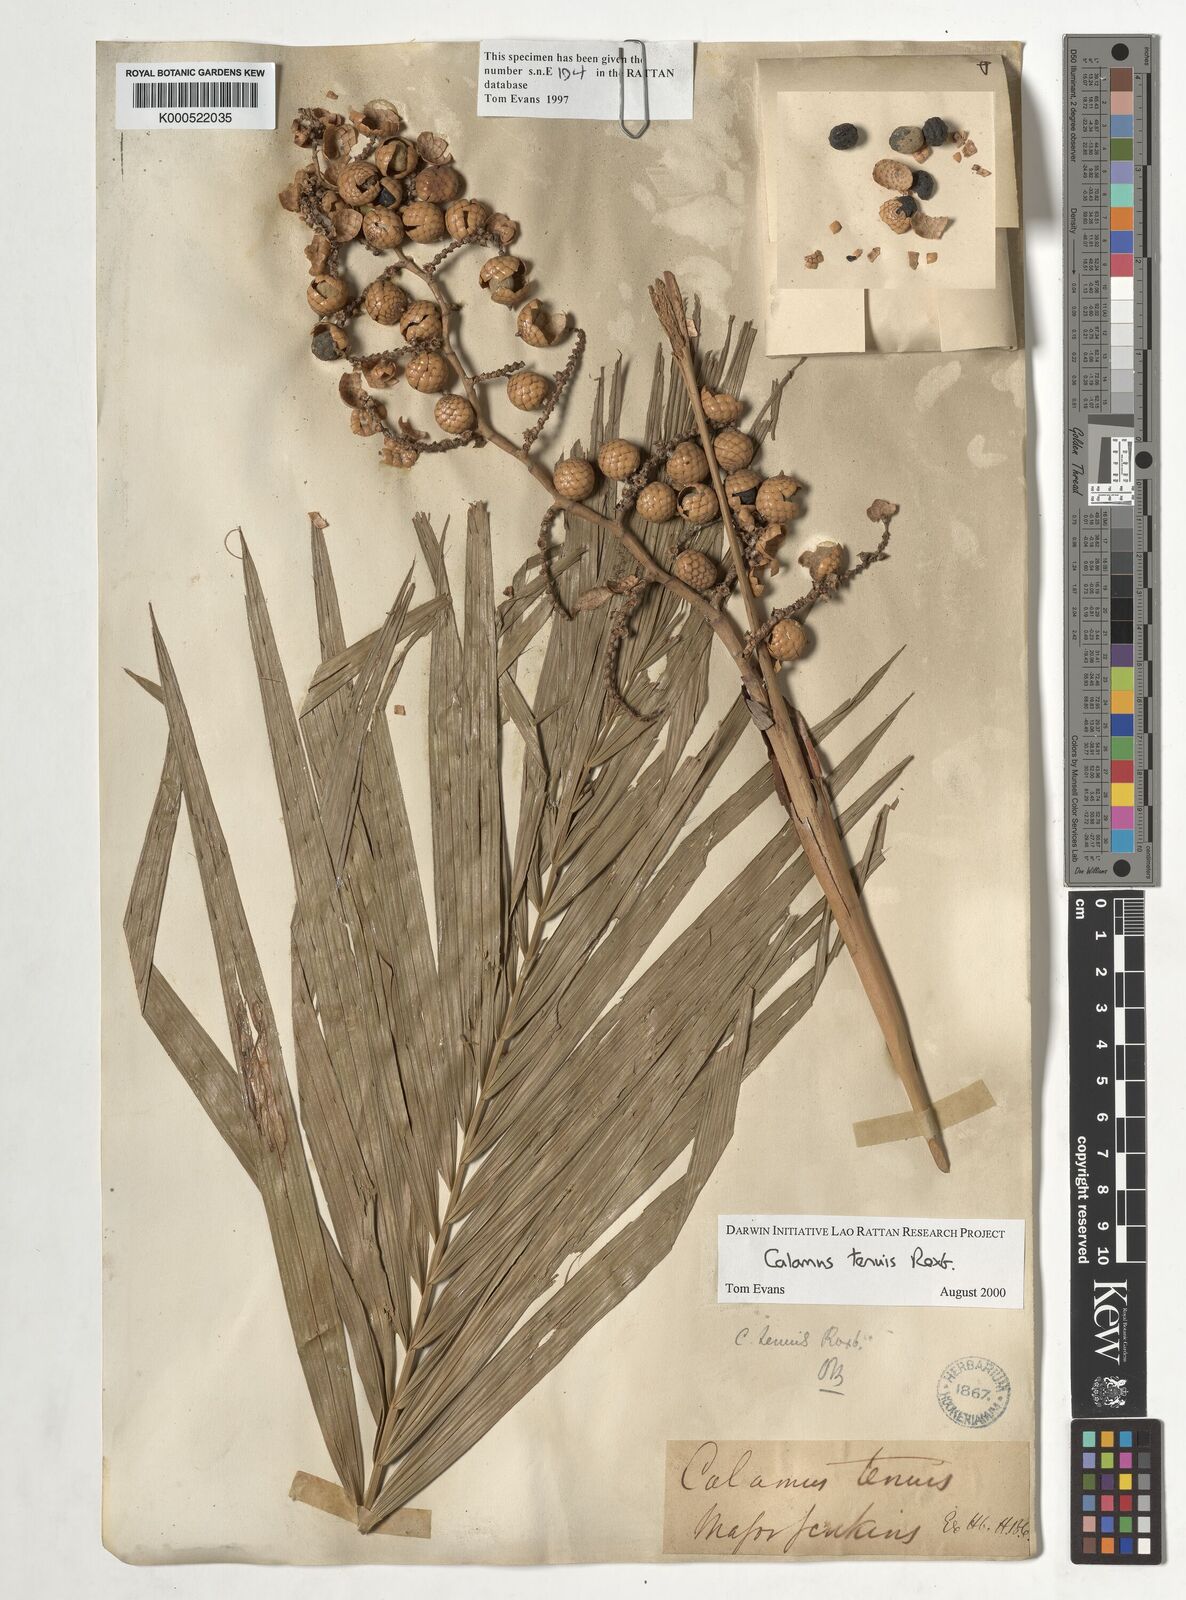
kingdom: Plantae
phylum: Tracheophyta
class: Liliopsida
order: Arecales
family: Arecaceae
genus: Calamus
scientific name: Calamus tenuis
